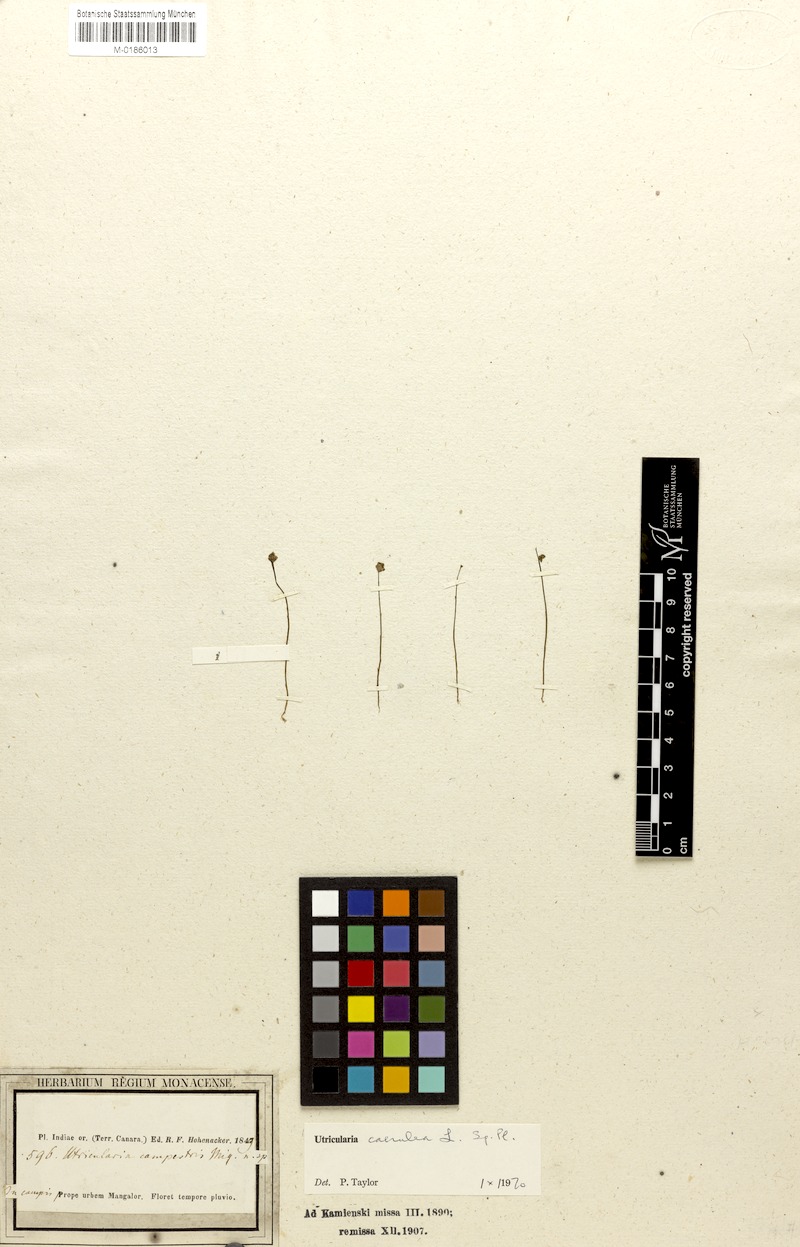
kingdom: Plantae
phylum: Tracheophyta
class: Magnoliopsida
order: Lamiales
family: Lentibulariaceae
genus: Utricularia
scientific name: Utricularia caerulea
